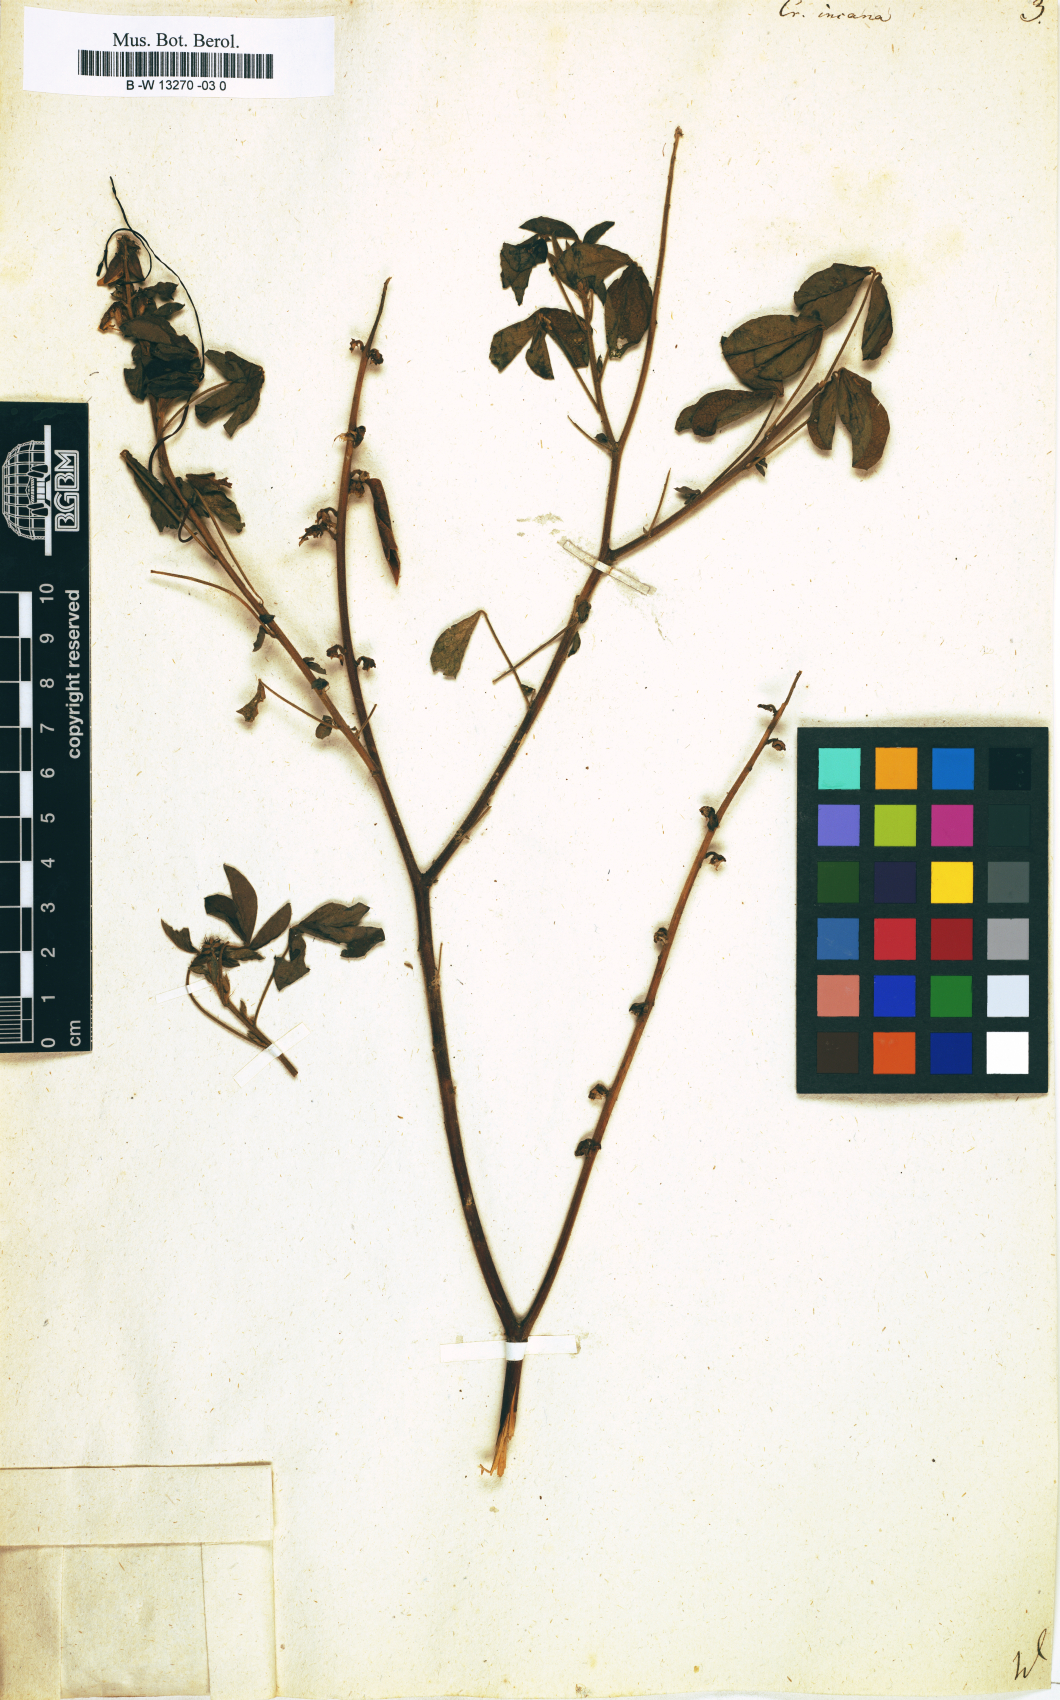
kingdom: Plantae
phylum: Tracheophyta
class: Magnoliopsida
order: Fabales
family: Fabaceae
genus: Crotalaria
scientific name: Crotalaria incana
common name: Shakeshake
